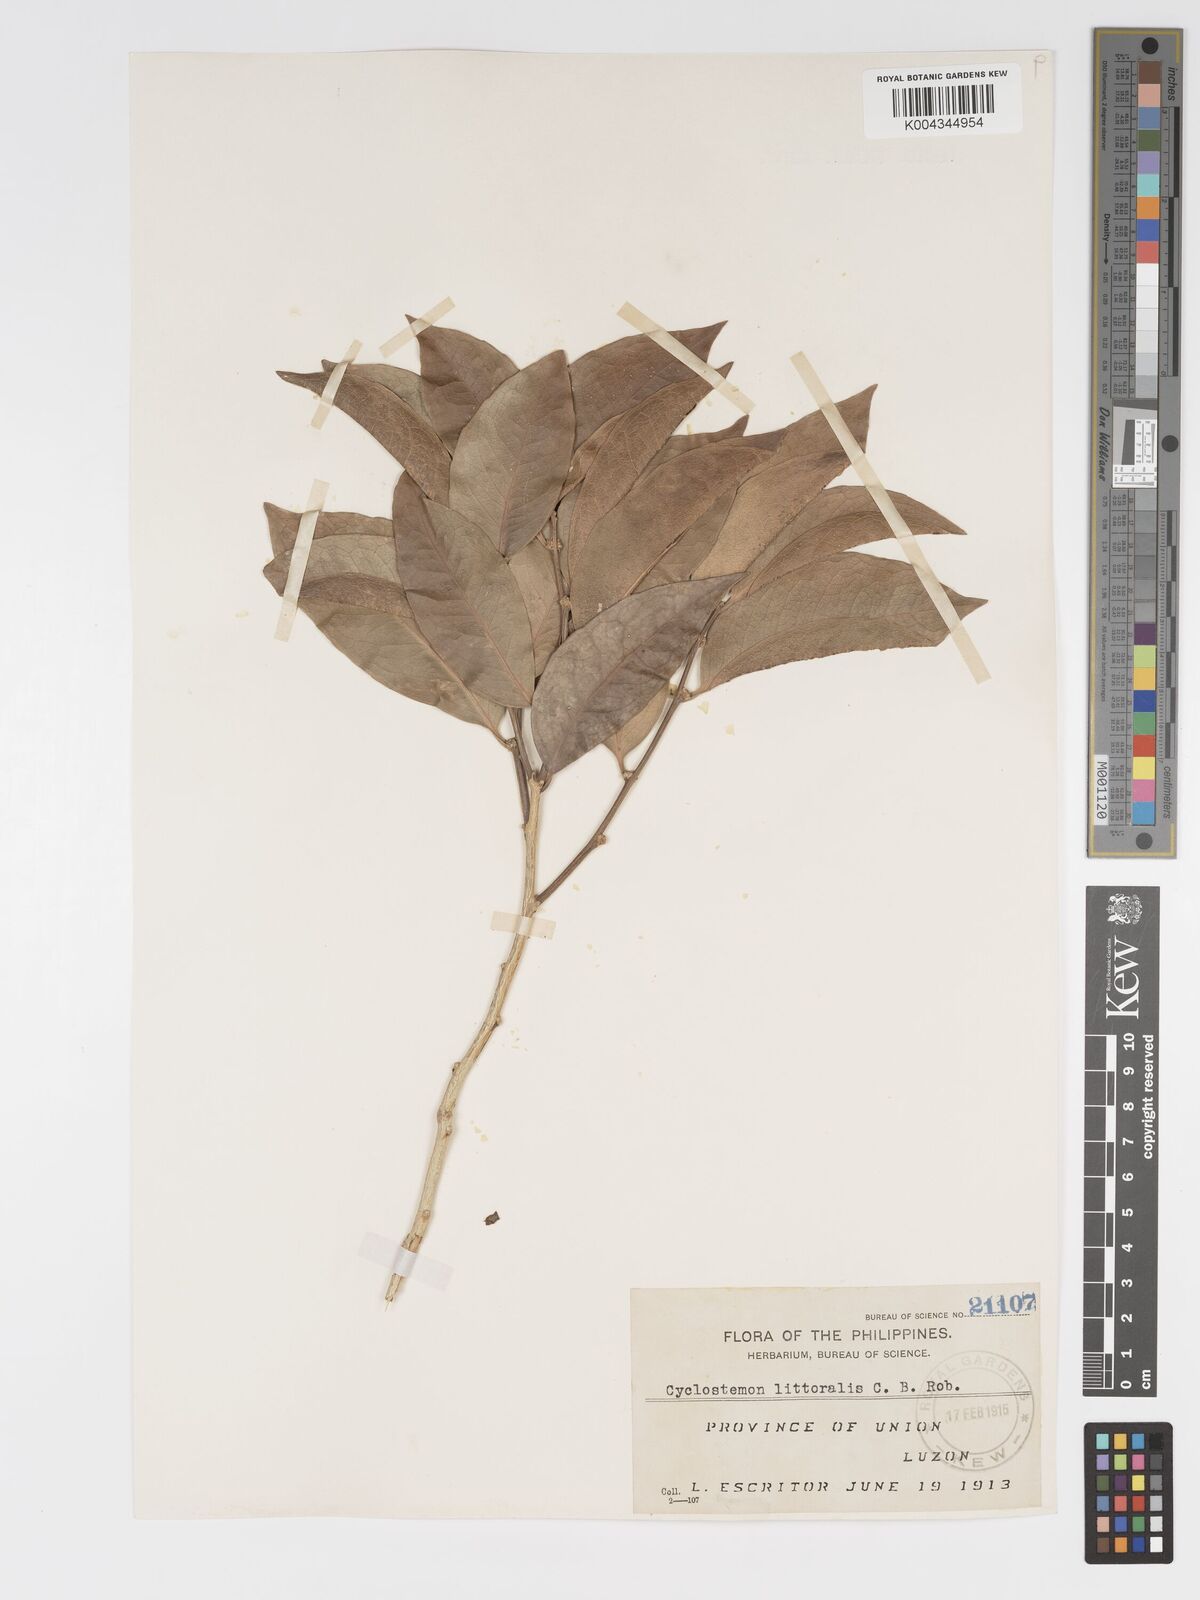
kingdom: Plantae
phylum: Tracheophyta
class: Magnoliopsida
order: Malpighiales
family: Putranjivaceae
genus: Drypetes
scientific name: Drypetes littoralis
